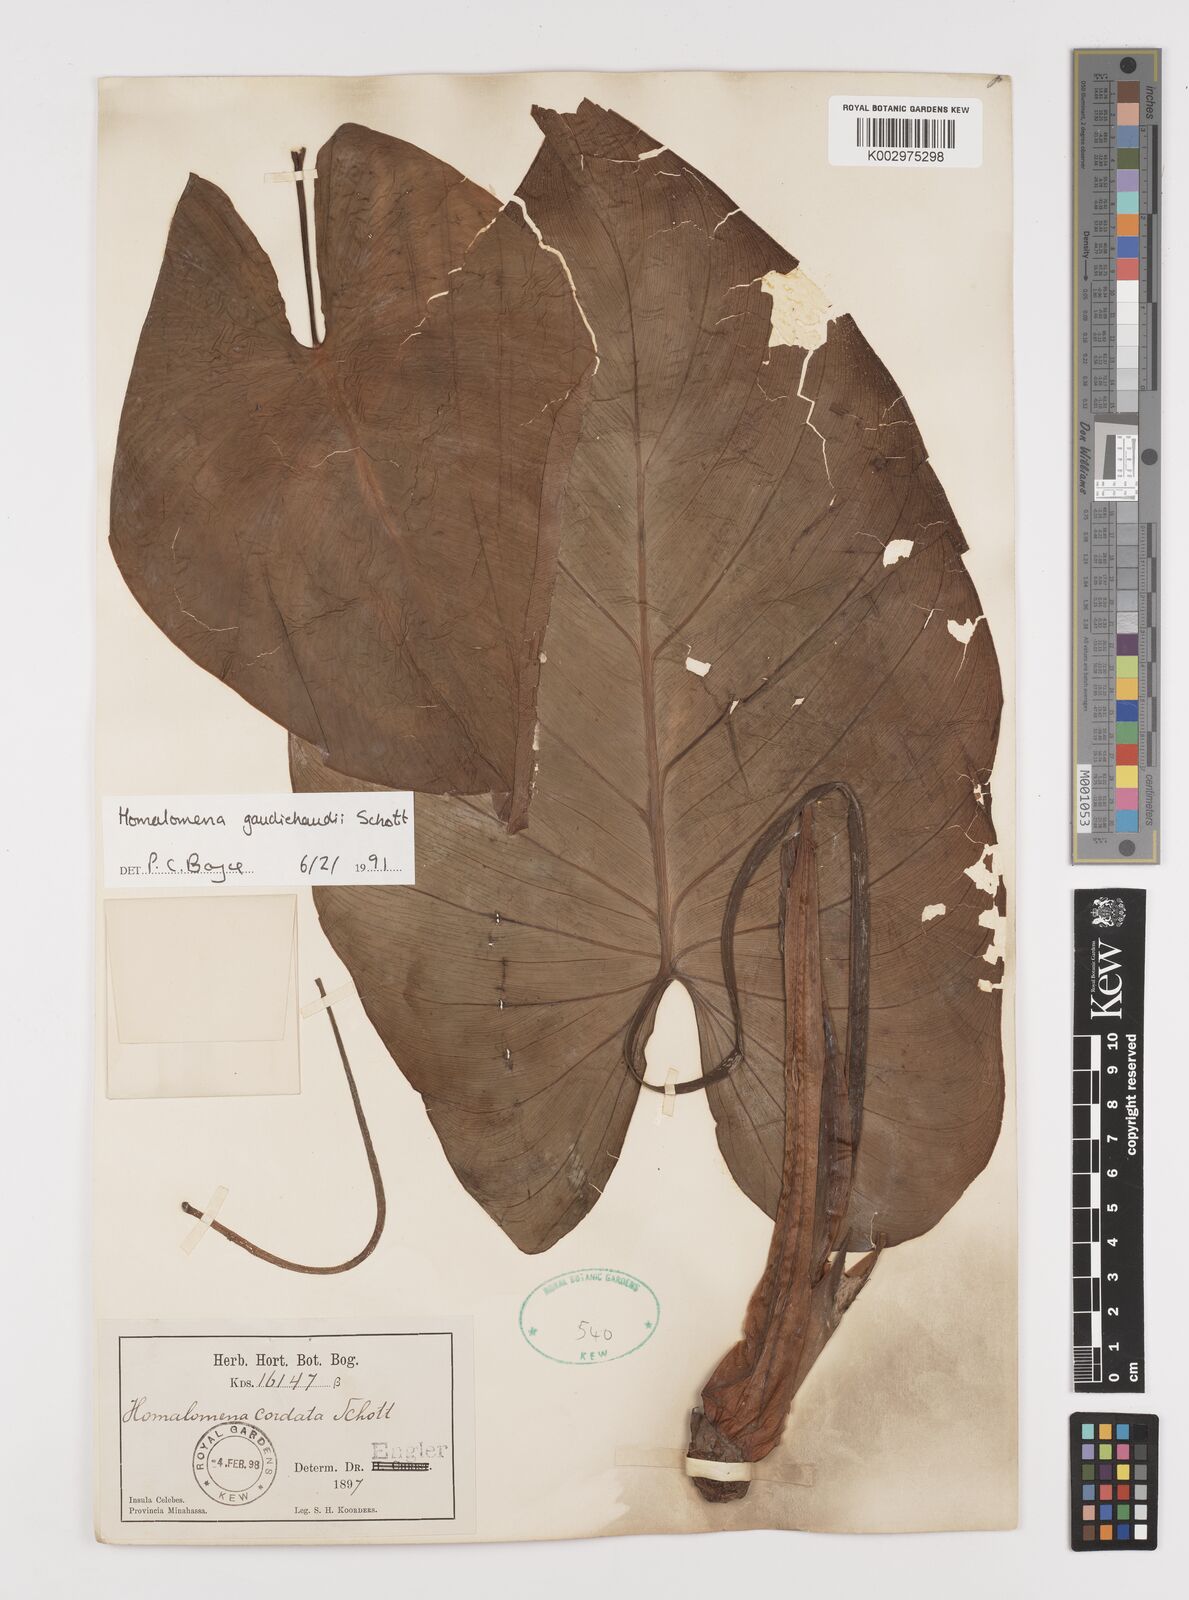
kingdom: Plantae
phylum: Tracheophyta
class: Liliopsida
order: Alismatales
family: Araceae
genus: Homalomena
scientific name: Homalomena gaudichaudii
